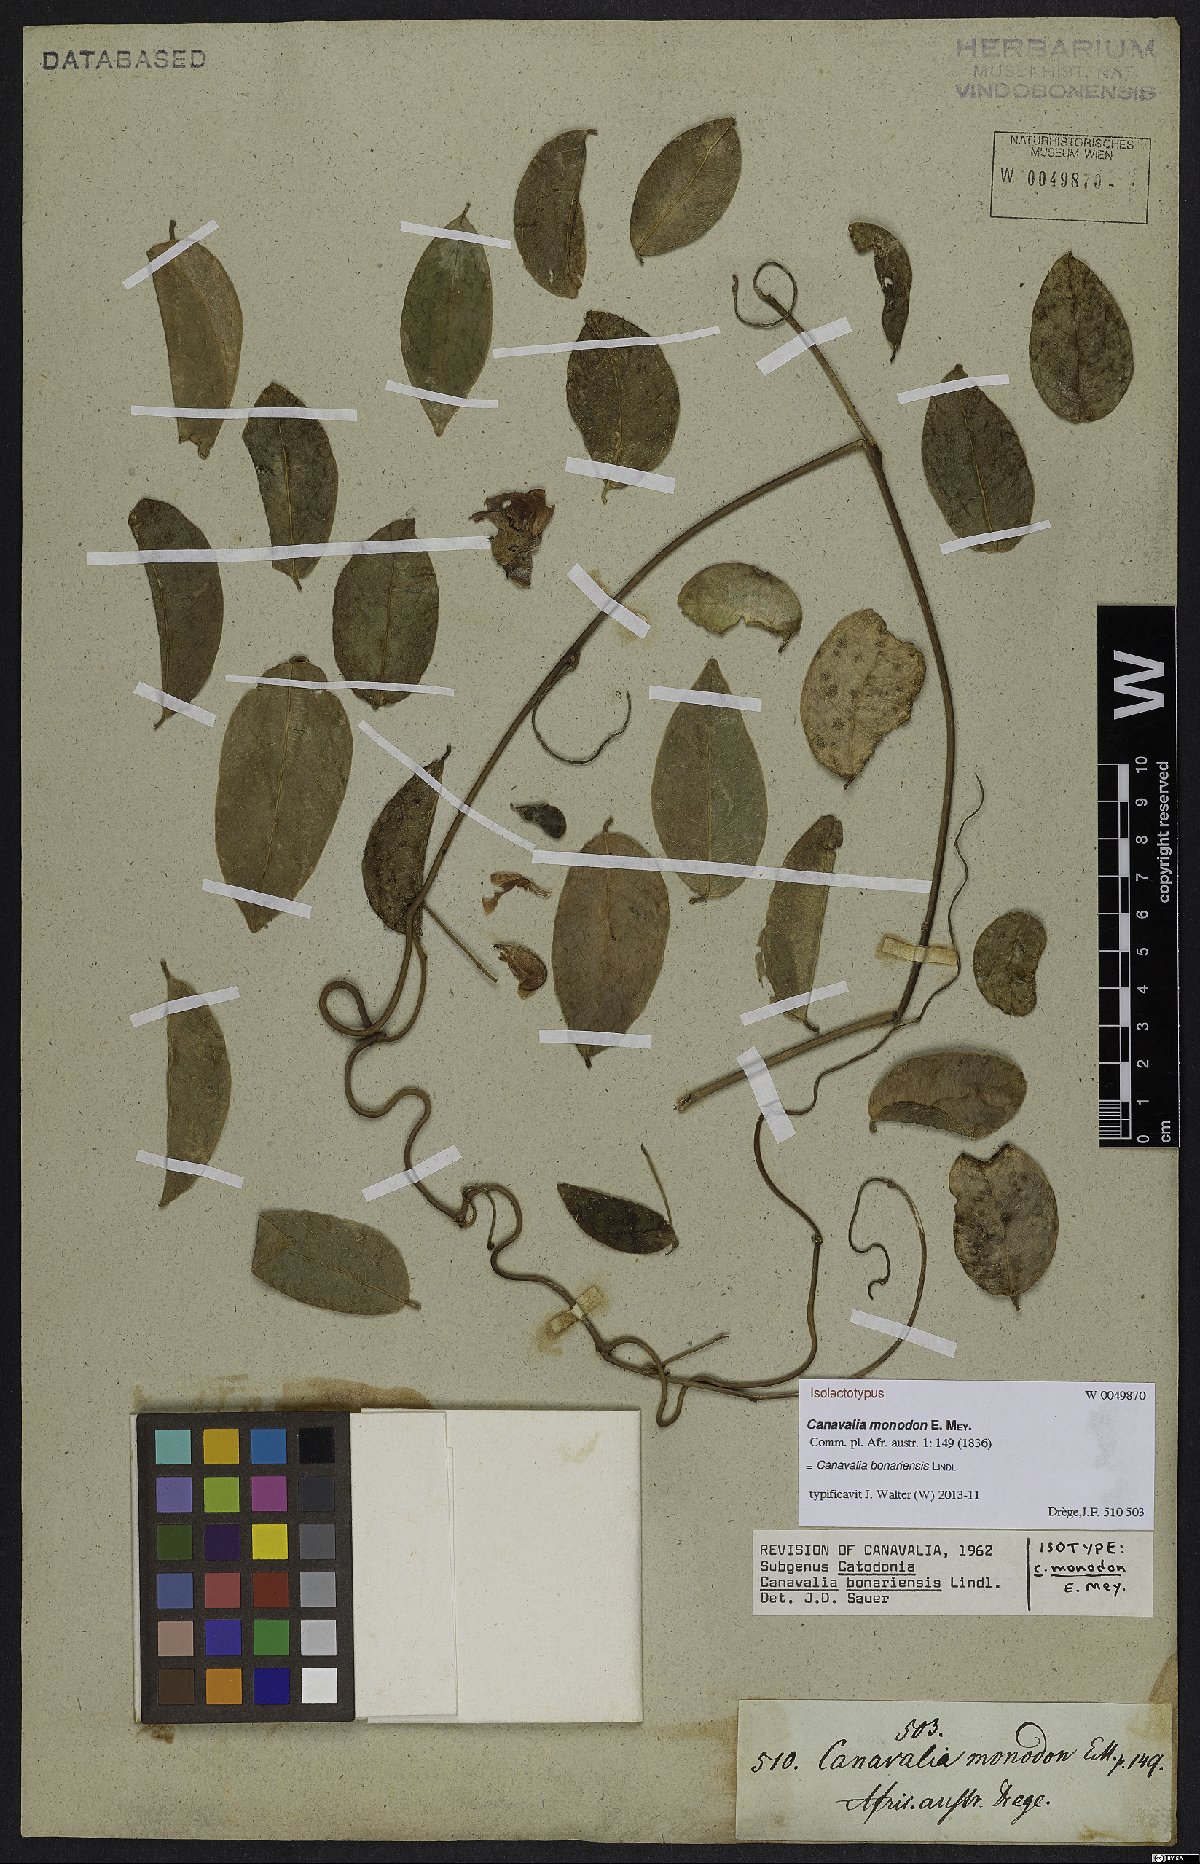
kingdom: Plantae
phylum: Tracheophyta
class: Magnoliopsida
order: Fabales
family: Fabaceae
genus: Canavalia
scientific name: Canavalia bonariensis
